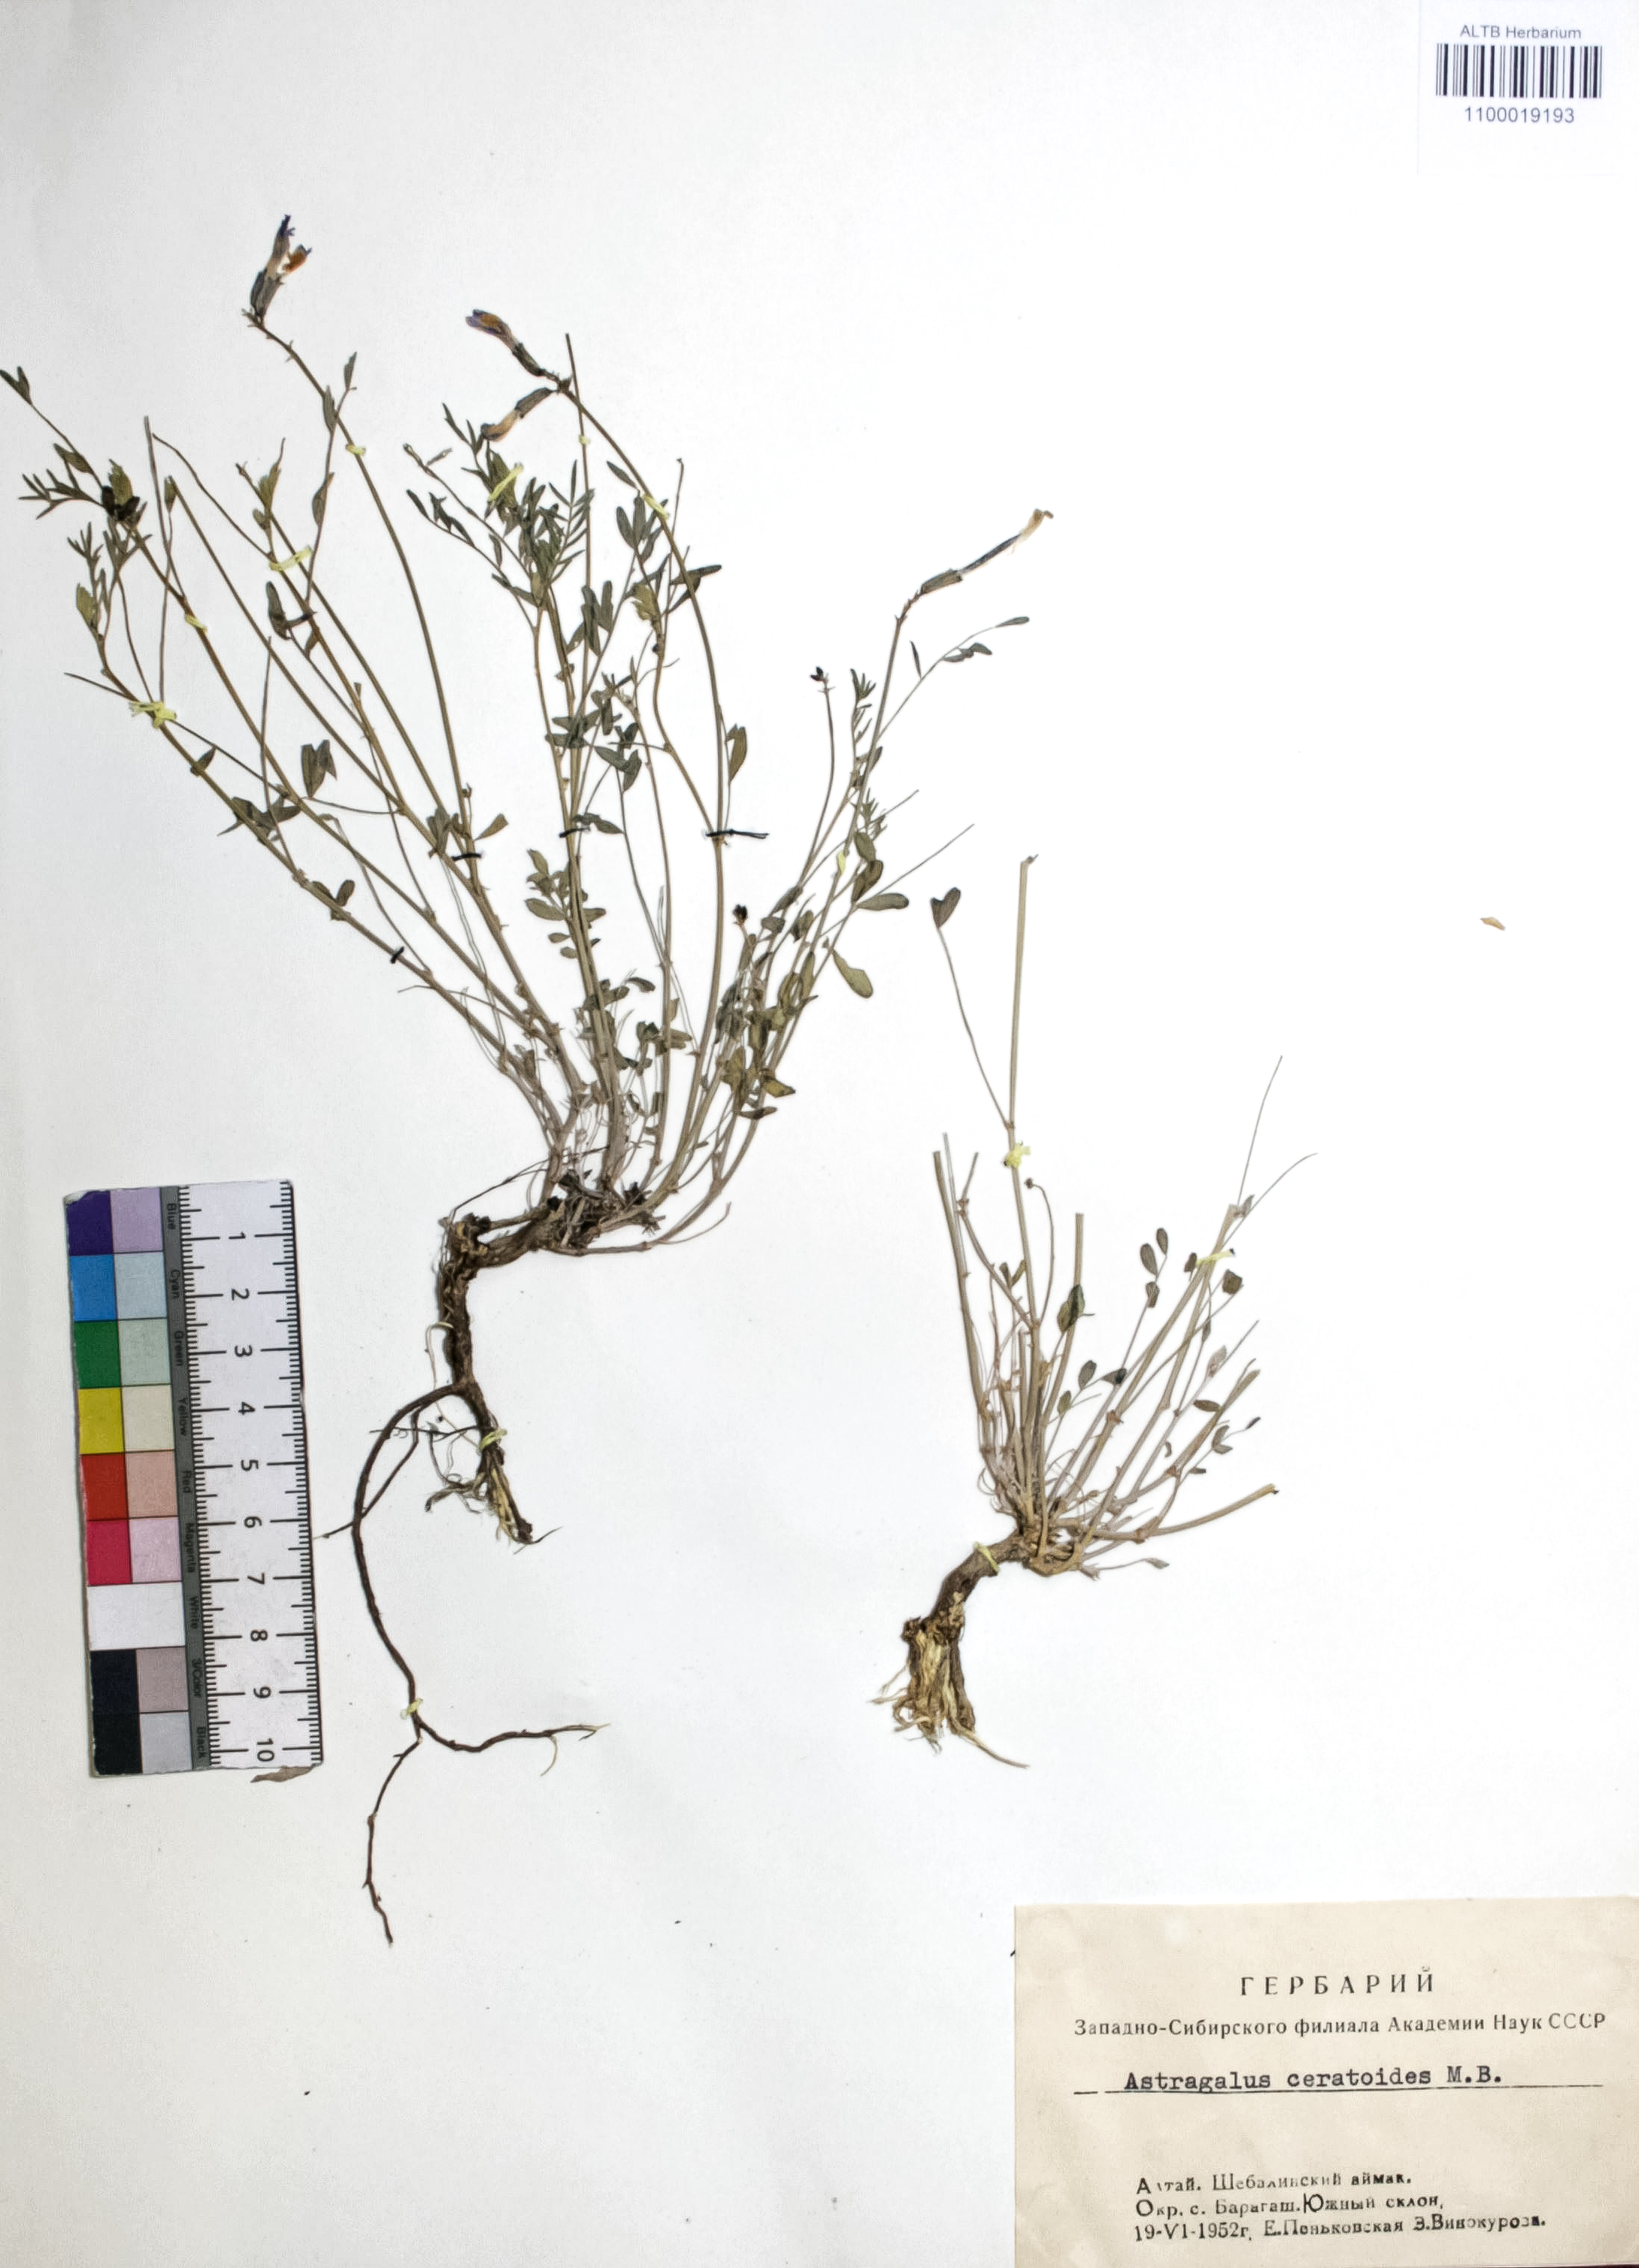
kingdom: Plantae
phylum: Tracheophyta
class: Magnoliopsida
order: Fabales
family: Fabaceae
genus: Astragalus
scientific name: Astragalus ceratoides
